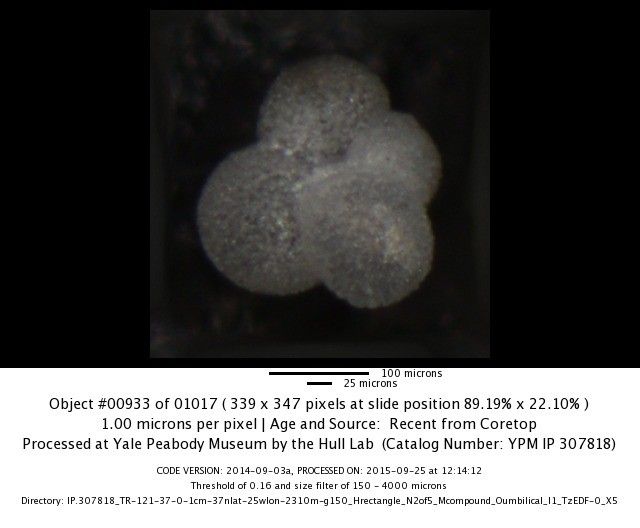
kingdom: Chromista
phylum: Foraminifera
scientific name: Foraminifera
